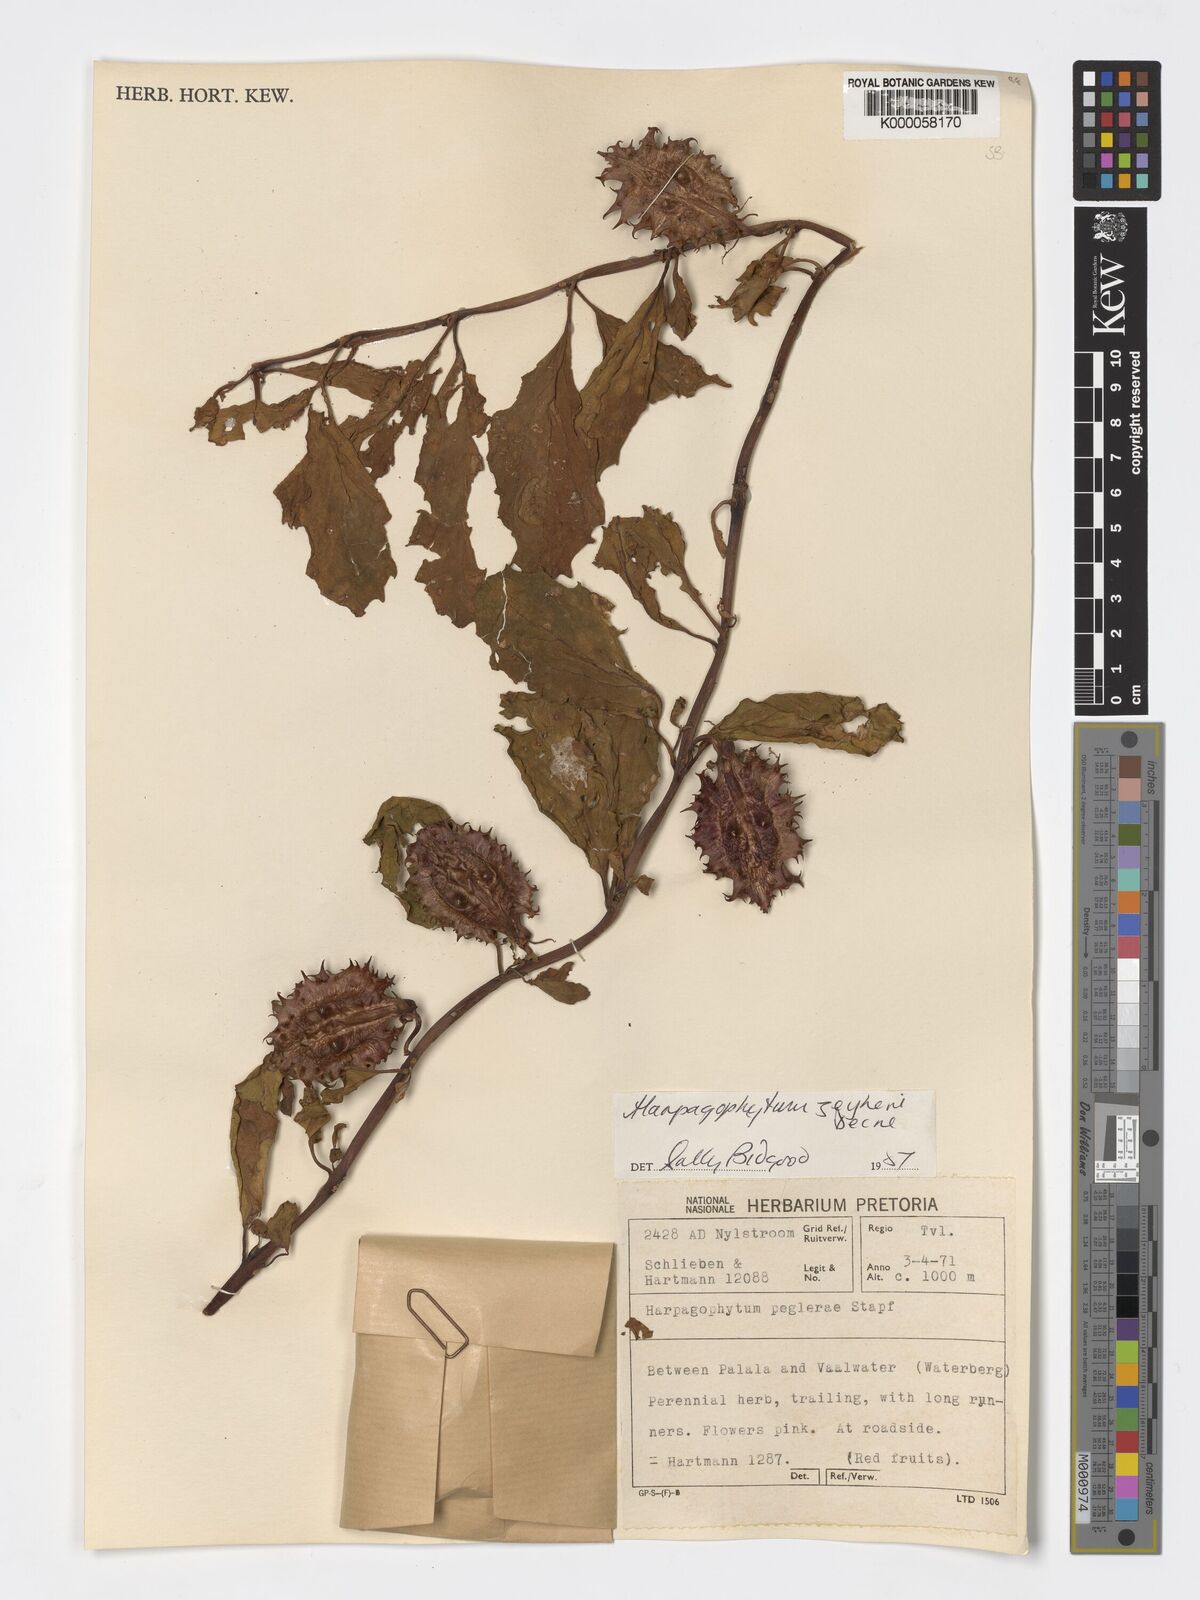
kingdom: Plantae
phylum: Tracheophyta
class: Magnoliopsida
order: Lamiales
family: Pedaliaceae
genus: Harpagophytum
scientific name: Harpagophytum zeyheri
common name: Grappleplant
